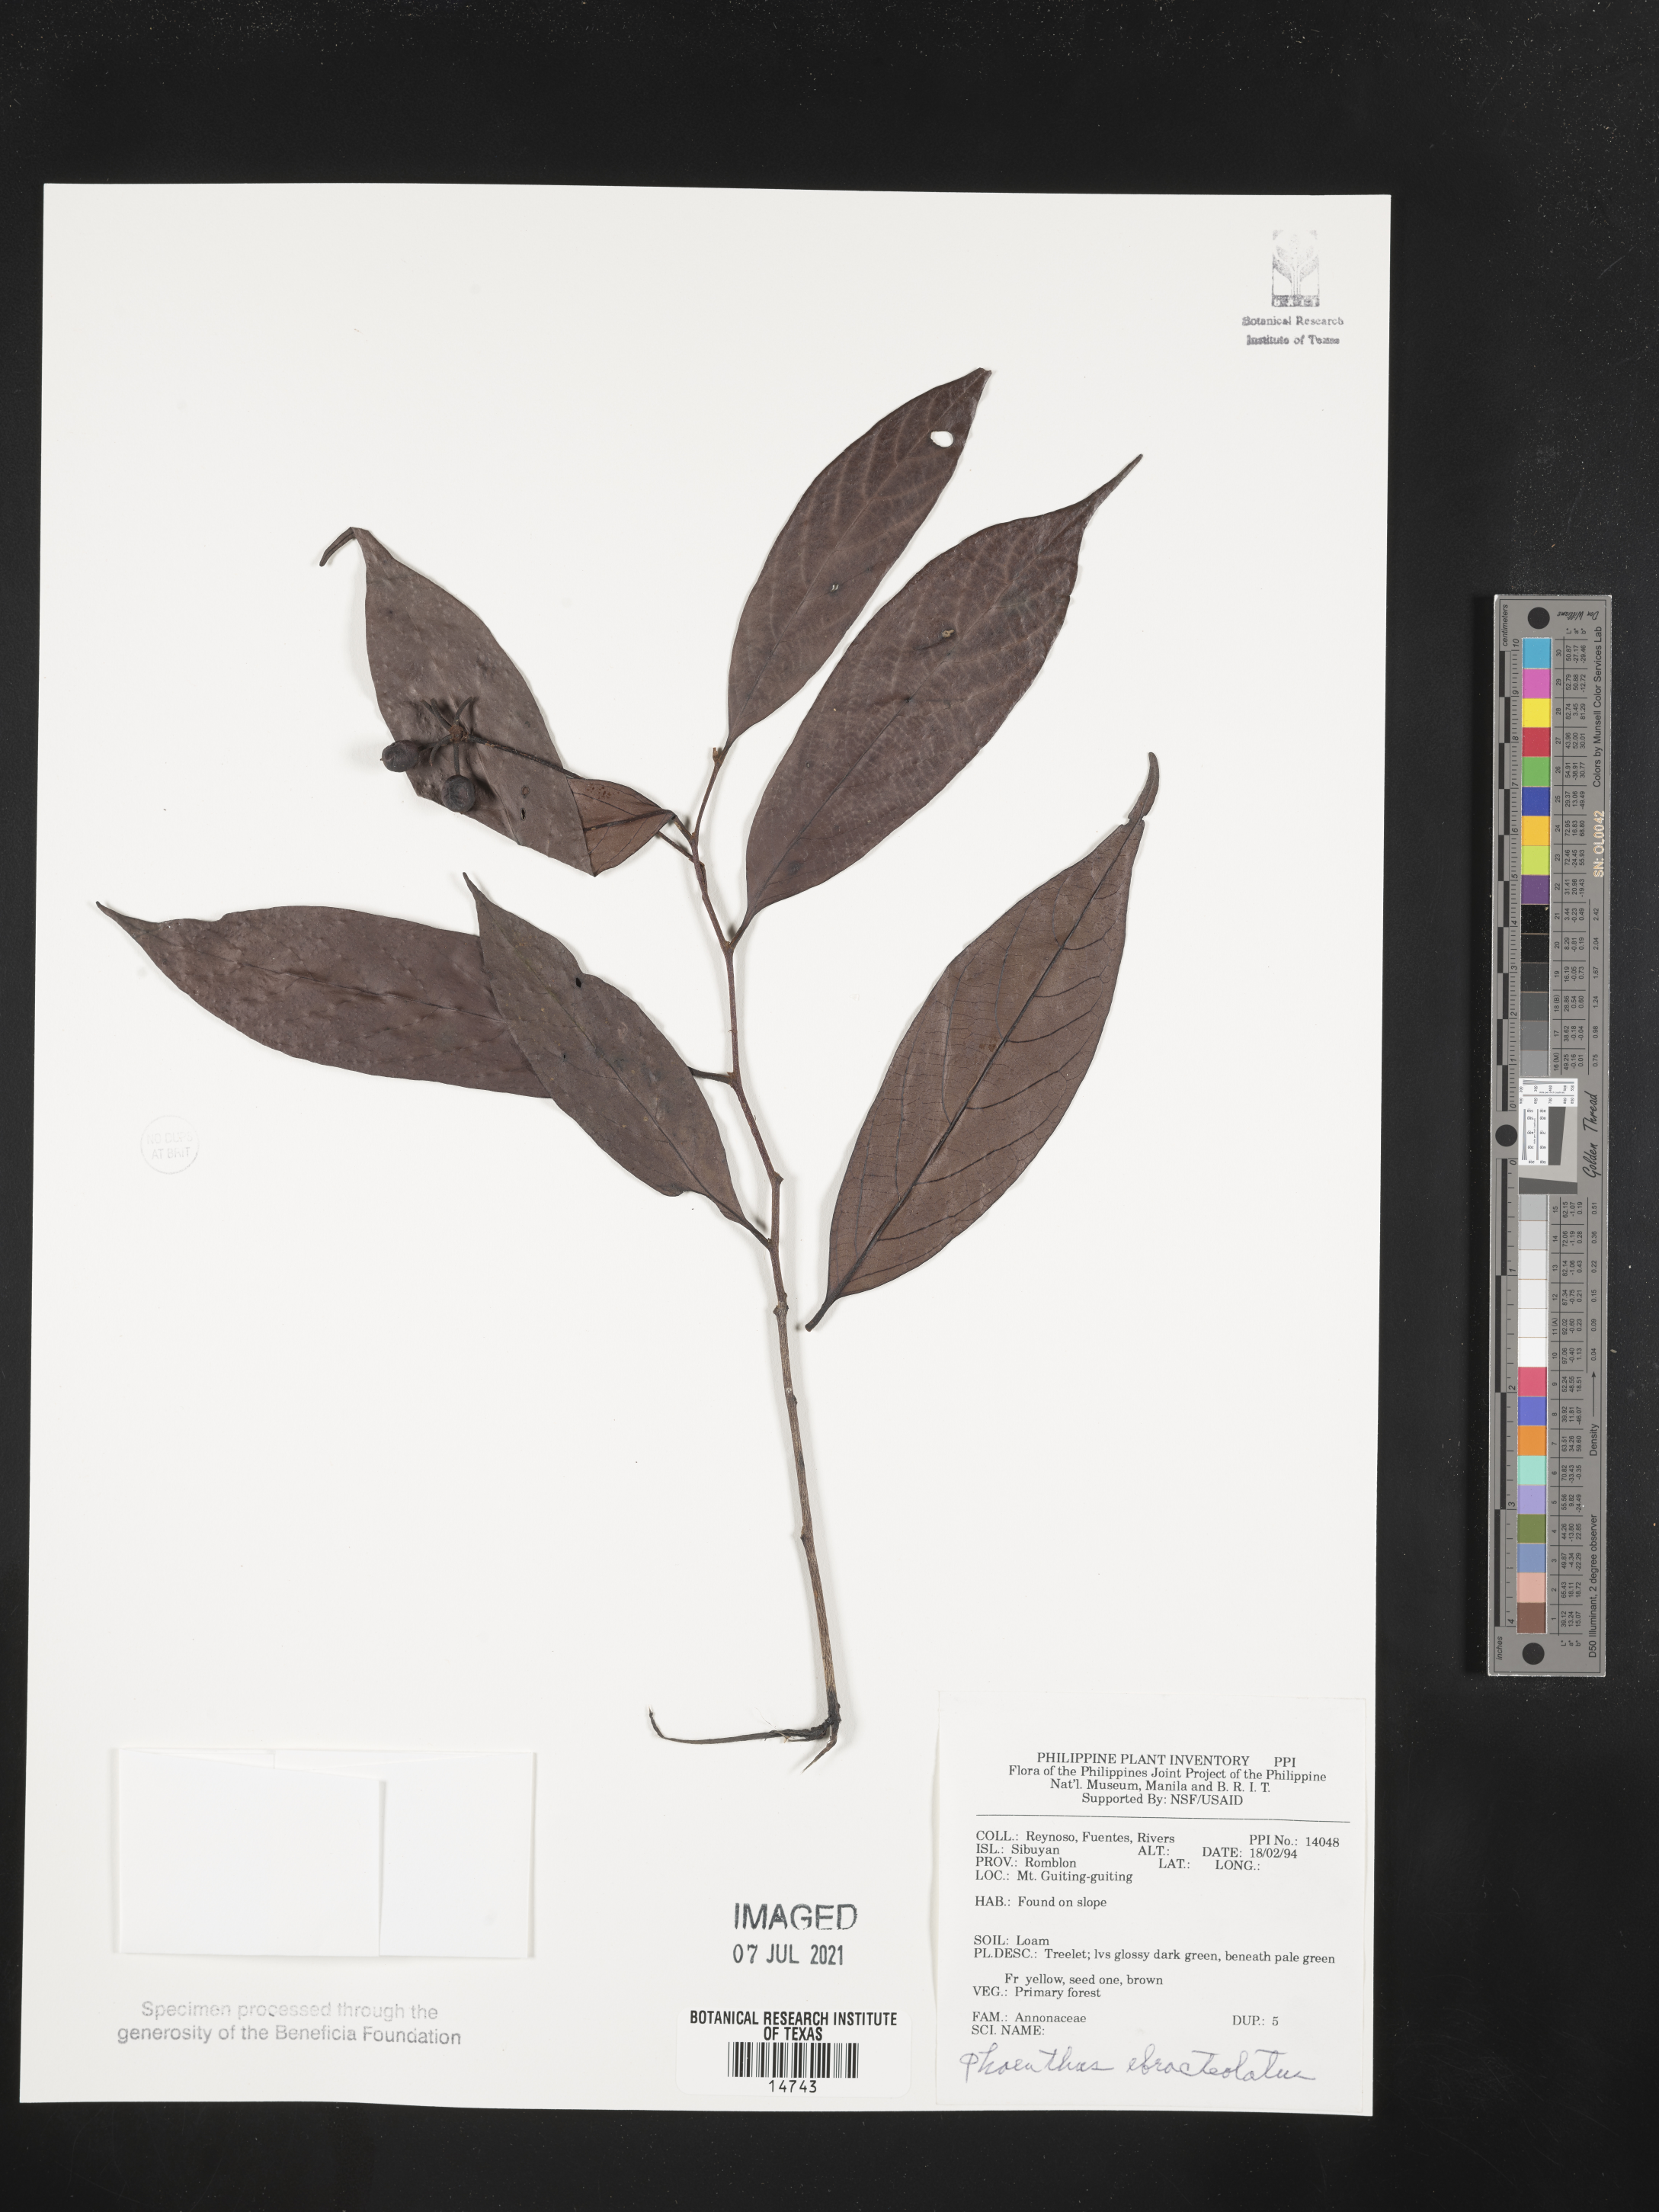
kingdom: Plantae
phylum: Tracheophyta
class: Magnoliopsida
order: Magnoliales
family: Annonaceae
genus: Phaeanthus
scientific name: Phaeanthus ophthalmicus
